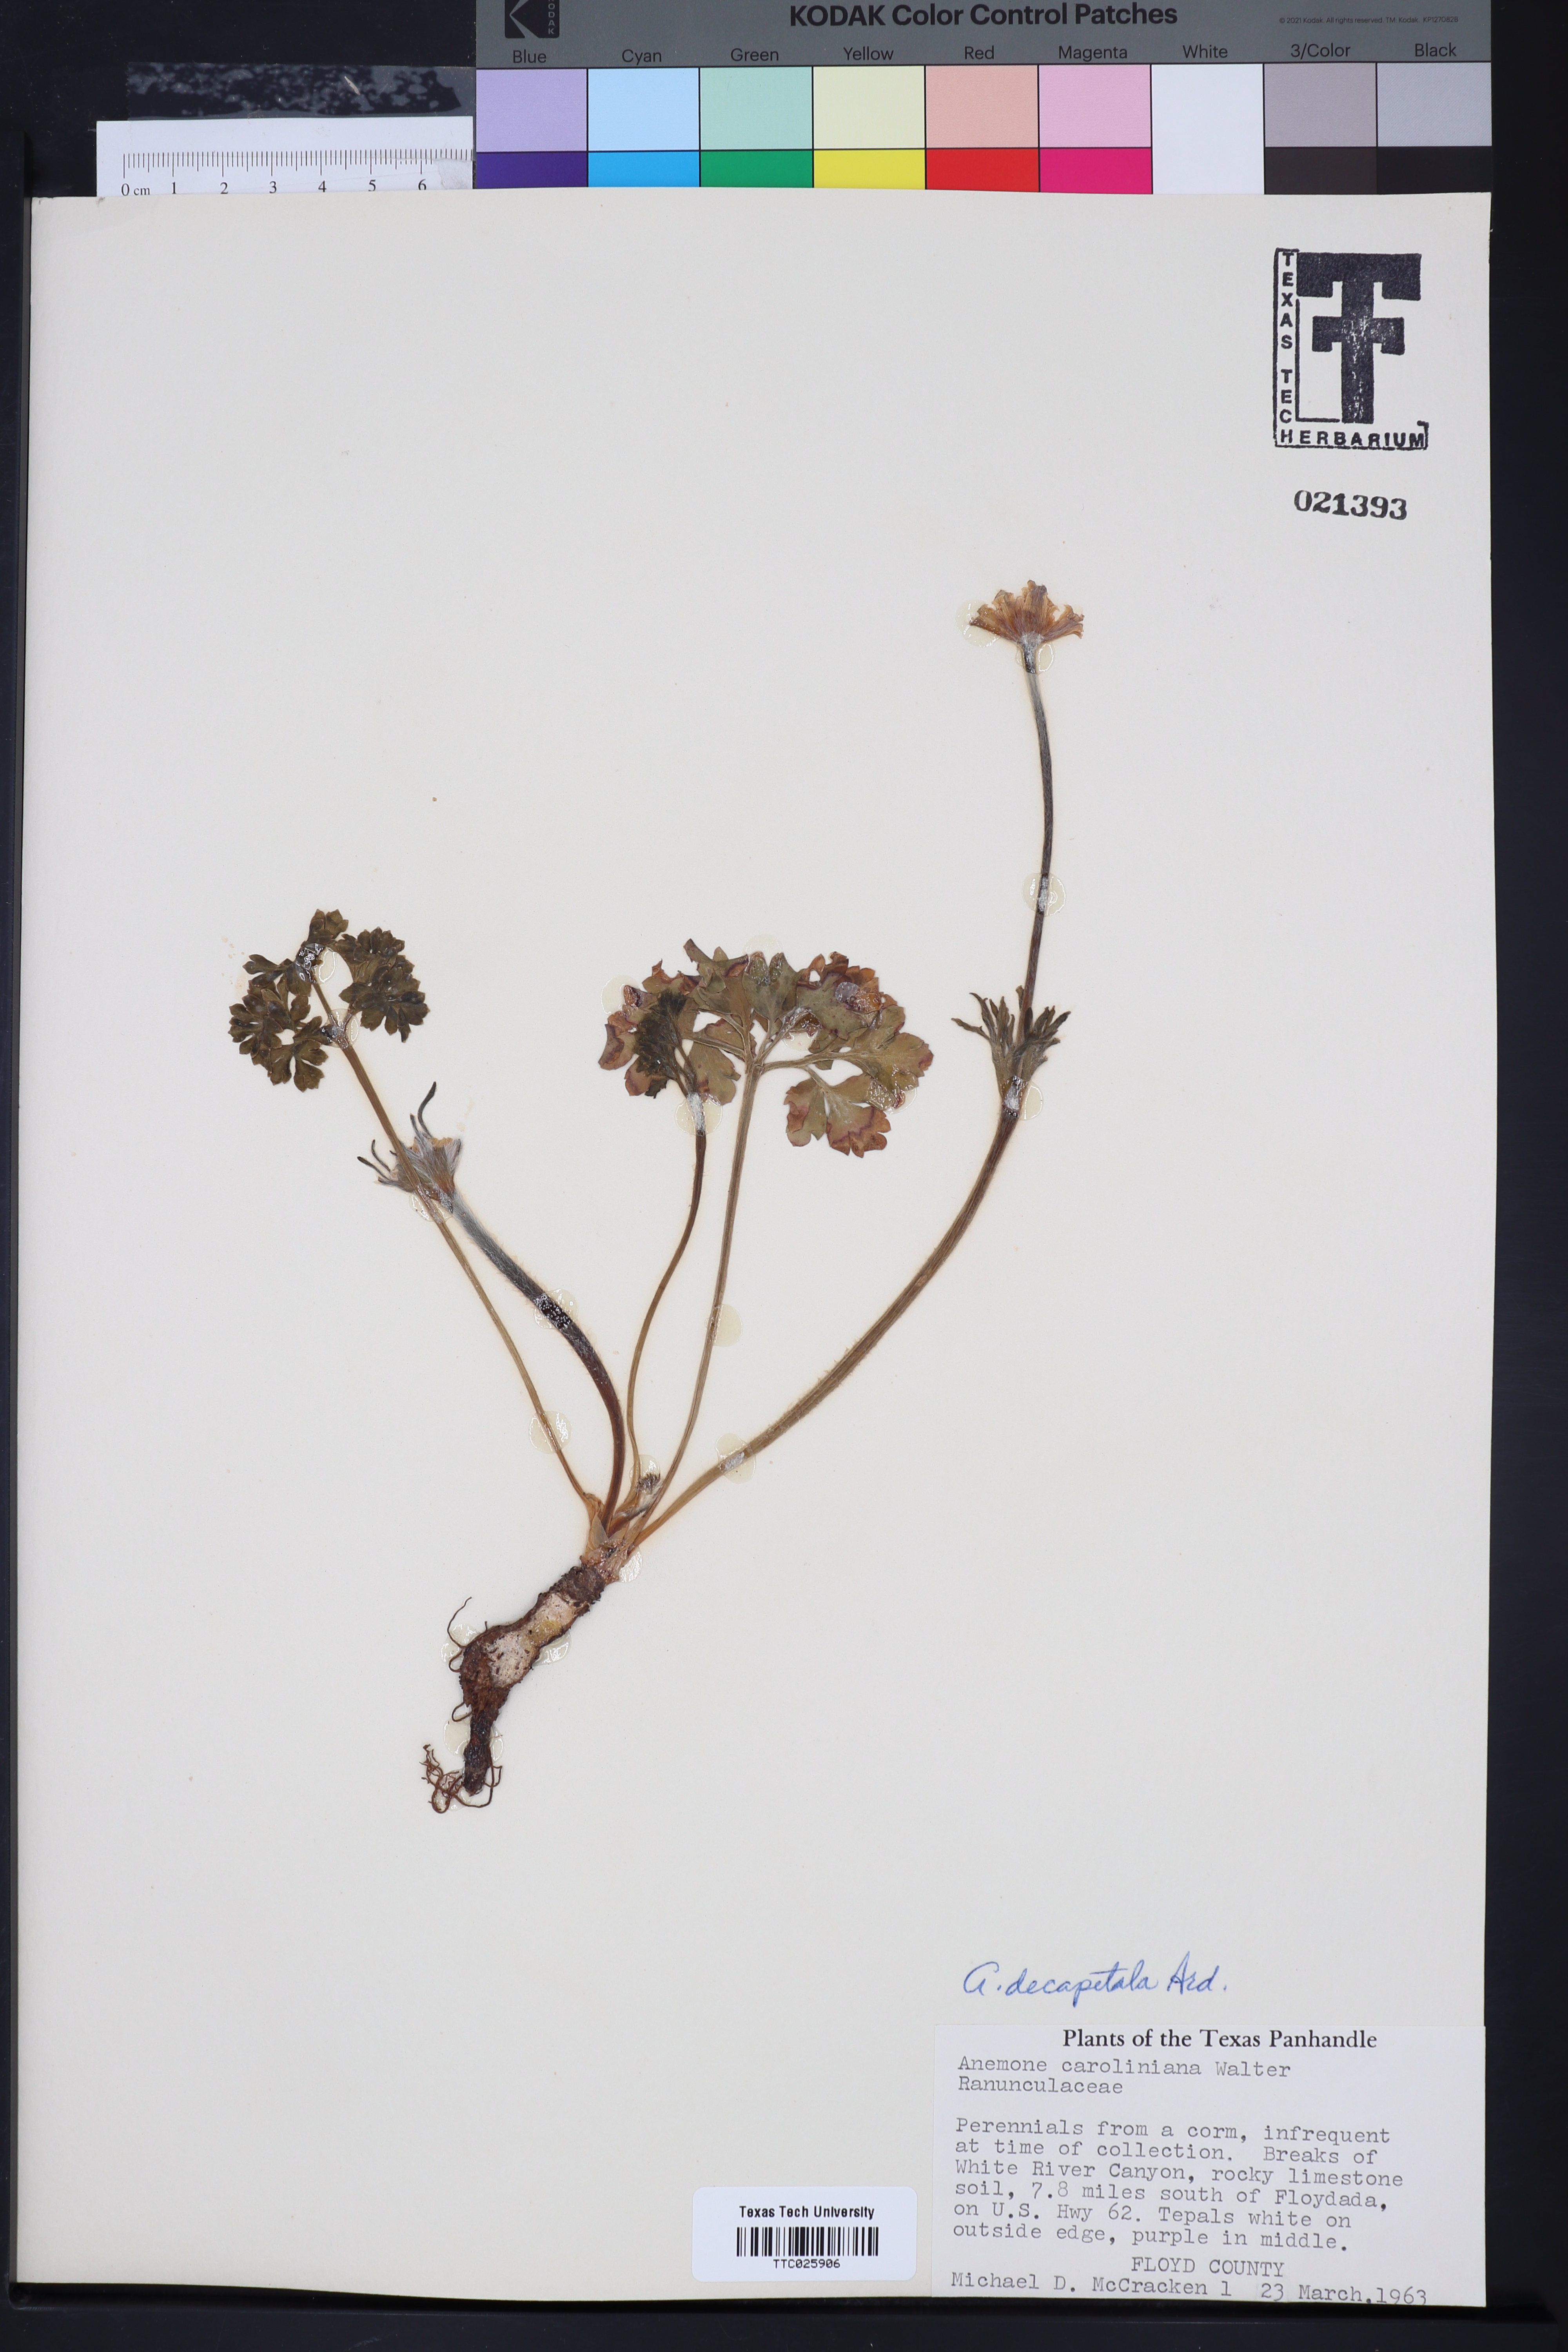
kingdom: Plantae
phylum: Tracheophyta
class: Magnoliopsida
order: Ranunculales
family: Ranunculaceae
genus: Anemone
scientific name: Anemone caroliniana
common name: Carolina anemone
